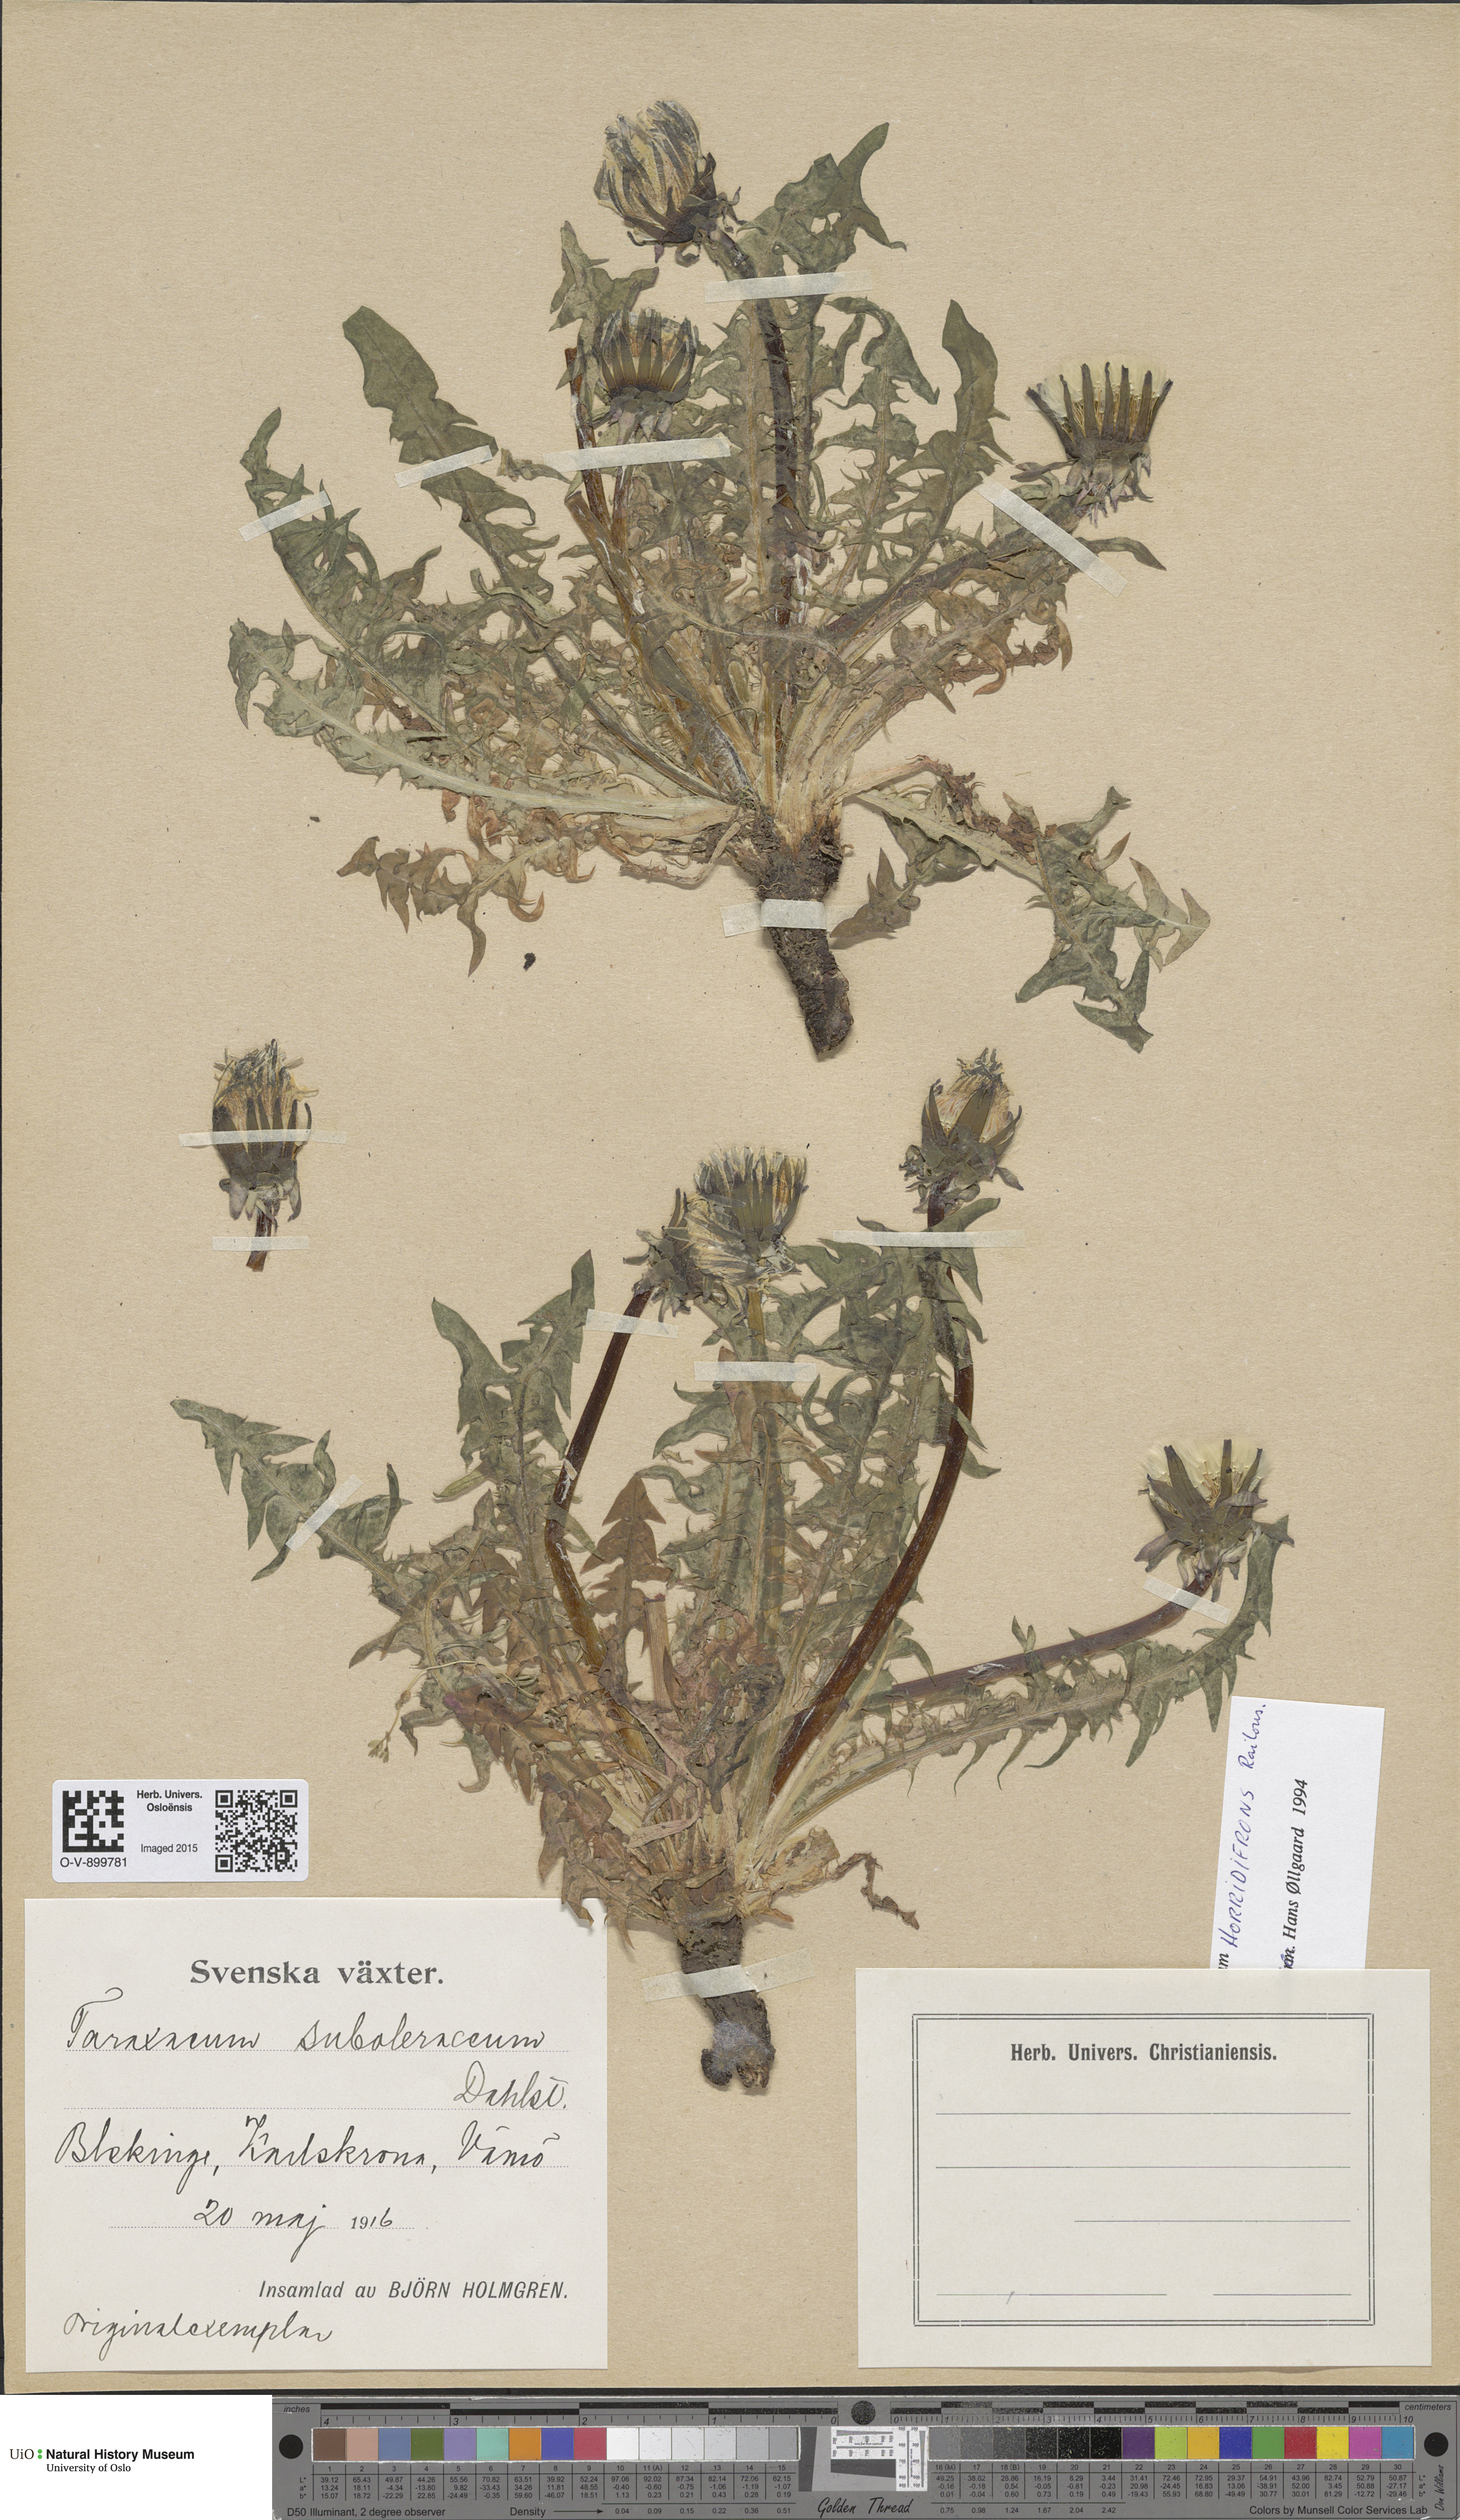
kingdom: Plantae
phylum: Tracheophyta
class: Magnoliopsida
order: Asterales
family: Asteraceae
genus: Taraxacum
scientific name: Taraxacum horridifrons
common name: Prickly-leaved dandelion
